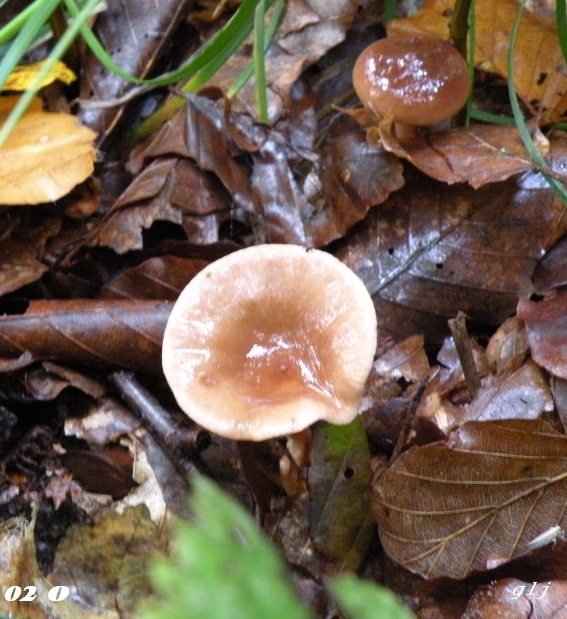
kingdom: Fungi
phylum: Basidiomycota
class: Agaricomycetes
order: Russulales
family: Russulaceae
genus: Lactarius
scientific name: Lactarius subdulcis
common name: sødlig mælkehat
